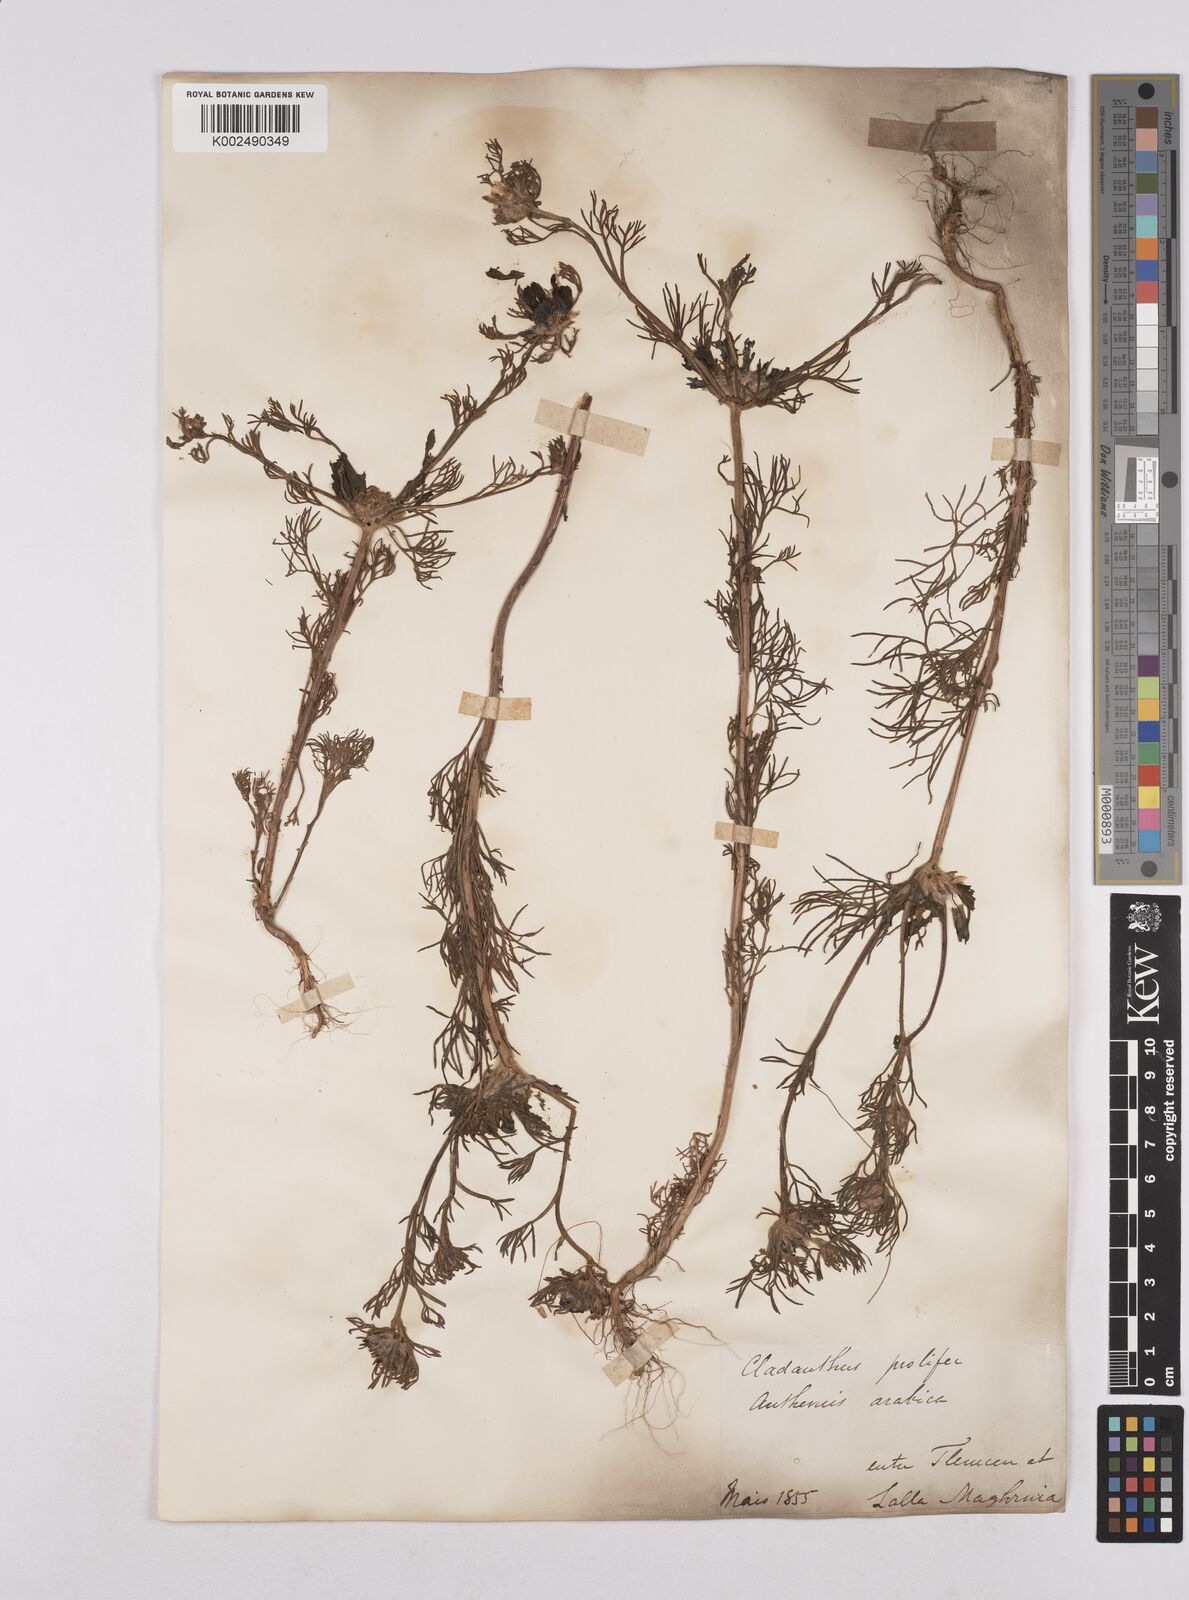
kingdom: Plantae
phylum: Tracheophyta
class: Magnoliopsida
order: Asterales
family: Asteraceae
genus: Cladanthus
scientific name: Cladanthus arabicus
